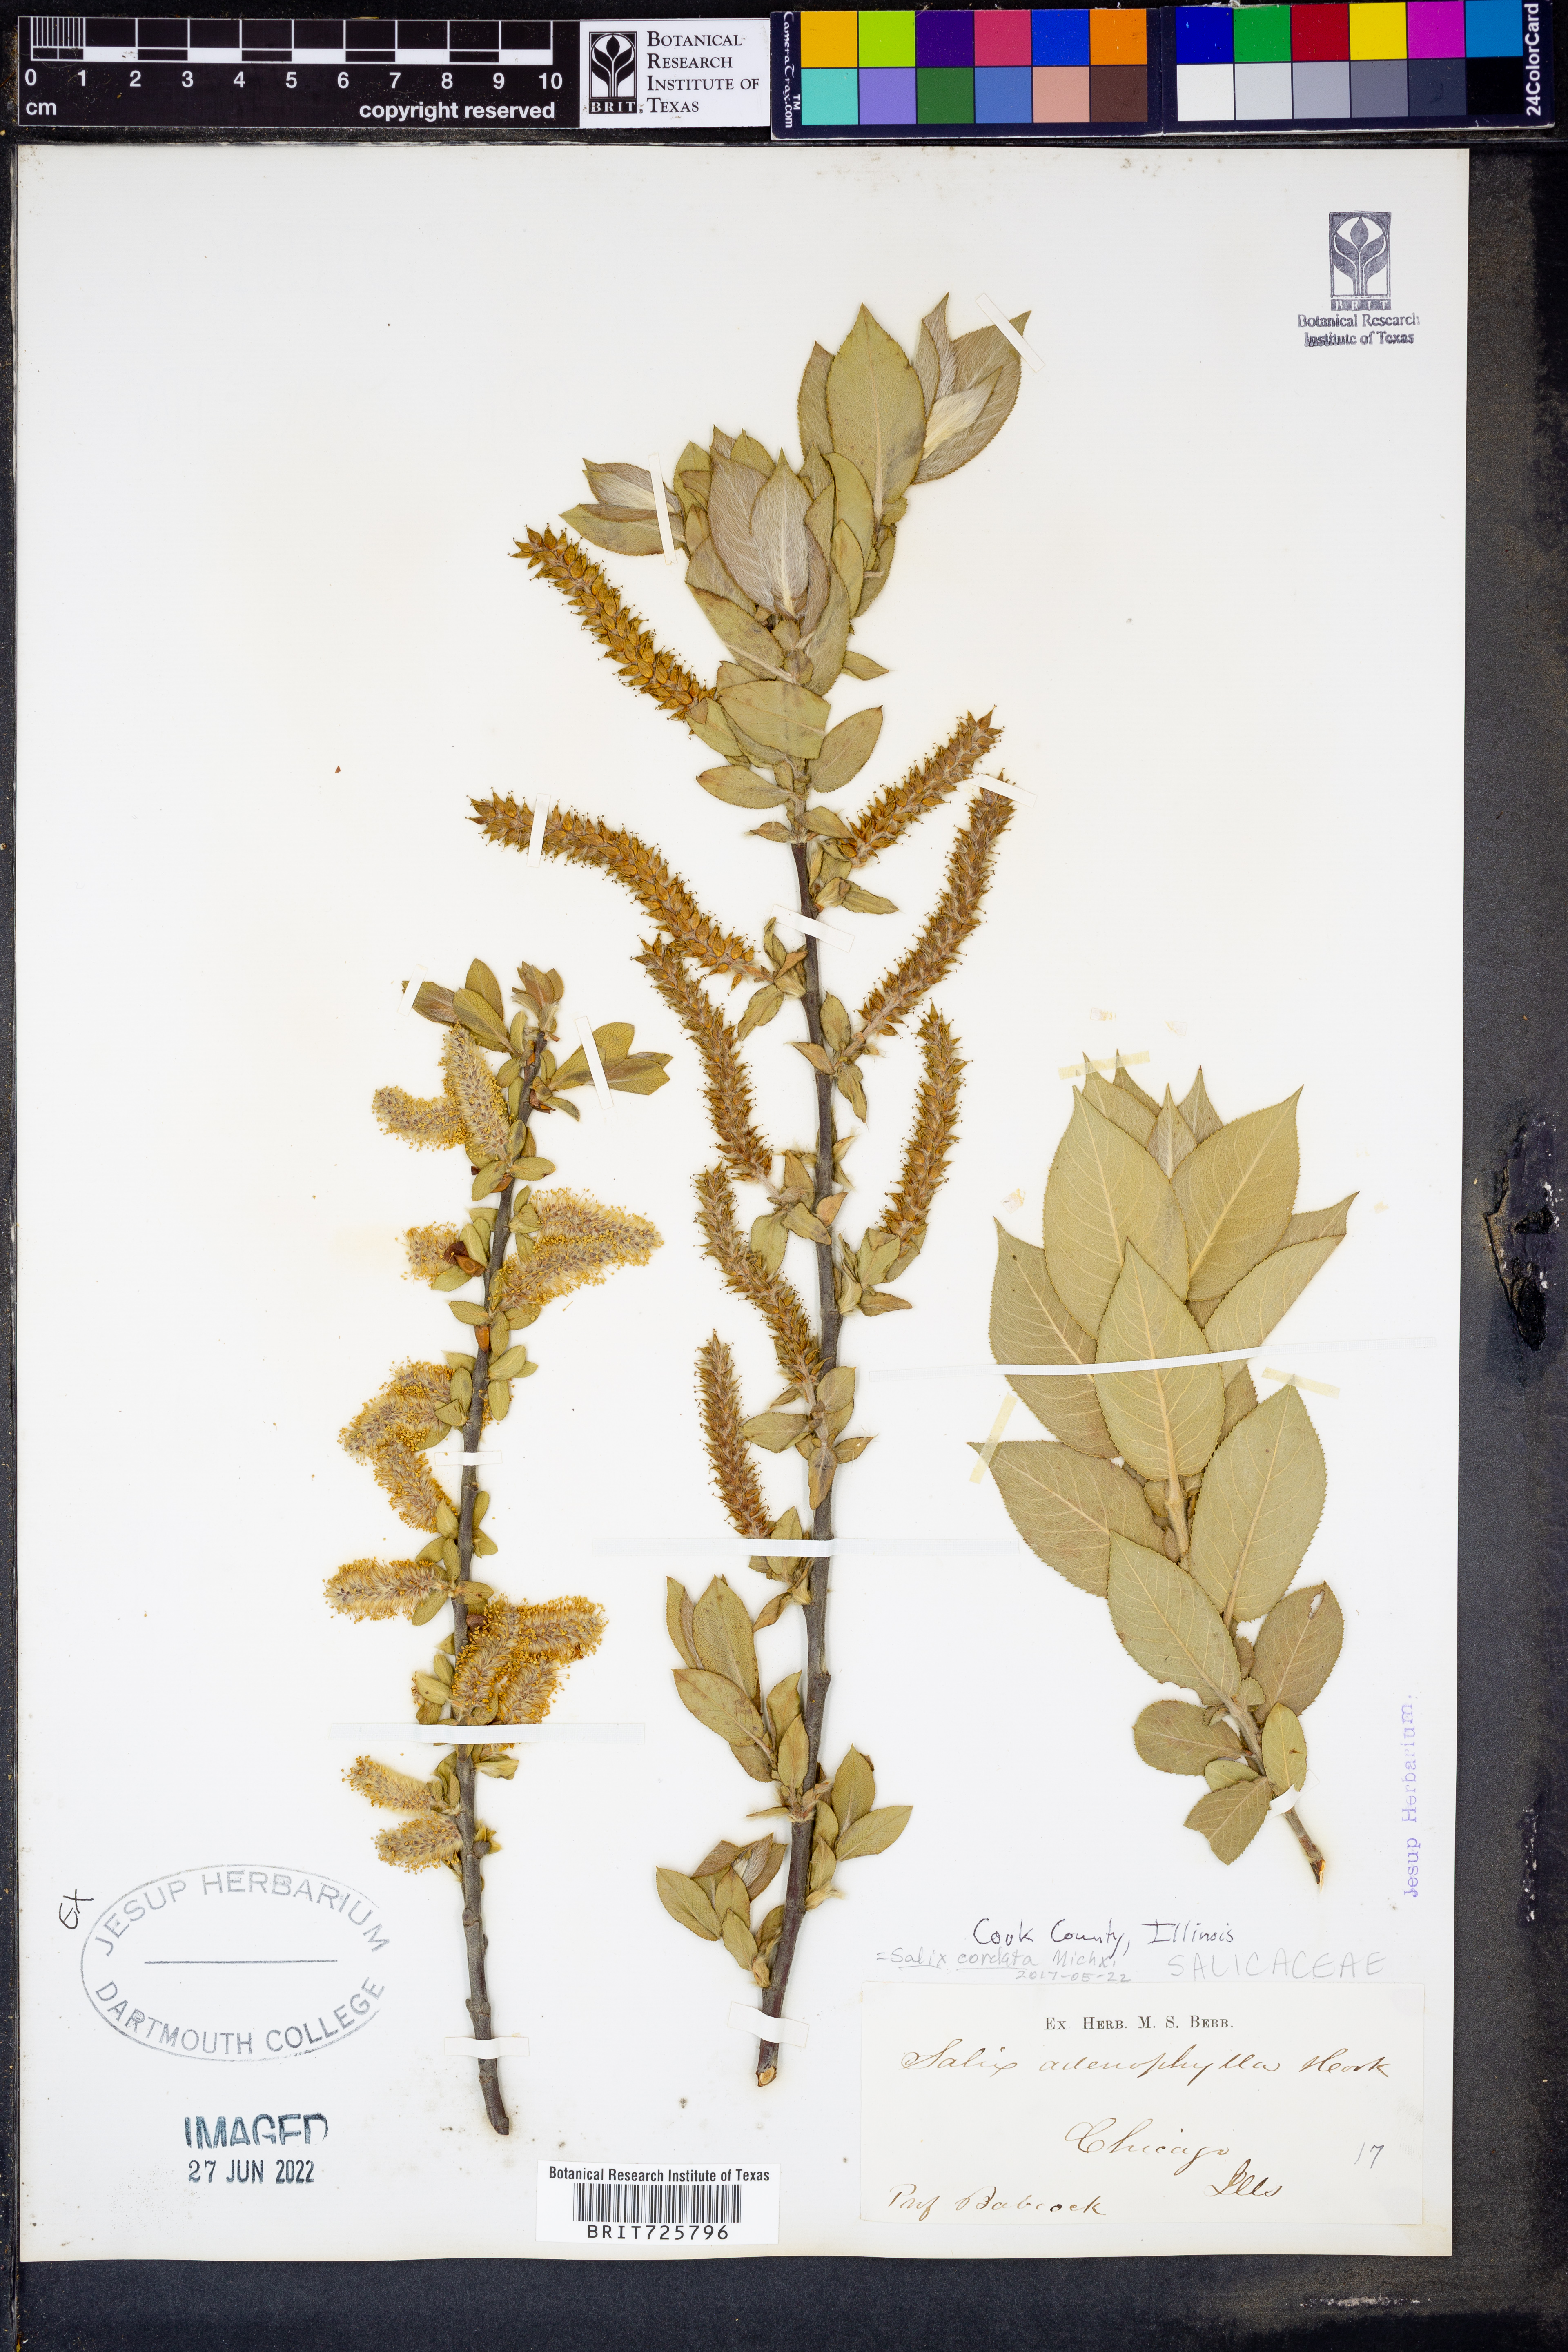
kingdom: Plantae
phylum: Tracheophyta
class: Magnoliopsida
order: Malpighiales
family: Salicaceae
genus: Salix
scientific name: Salix cordata
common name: Heart-leaf willow
